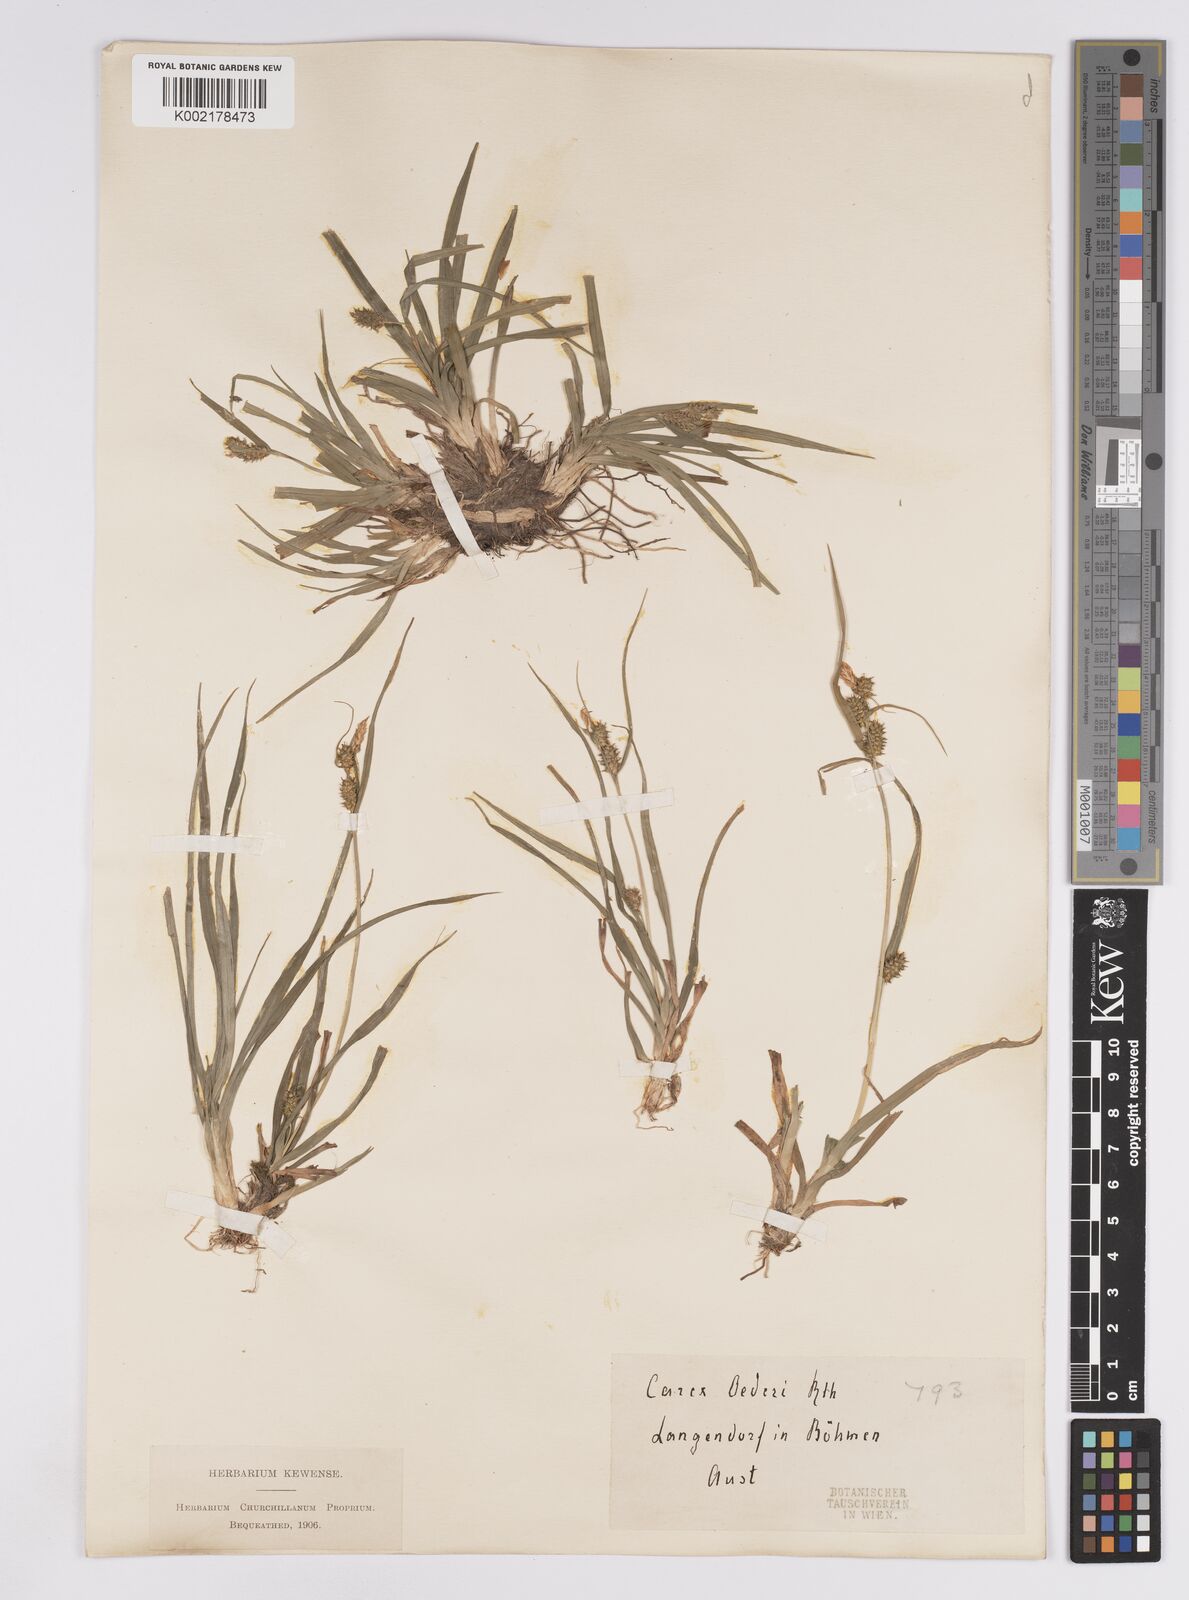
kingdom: Plantae
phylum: Tracheophyta
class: Liliopsida
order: Poales
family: Cyperaceae
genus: Carex
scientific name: Carex demissa
